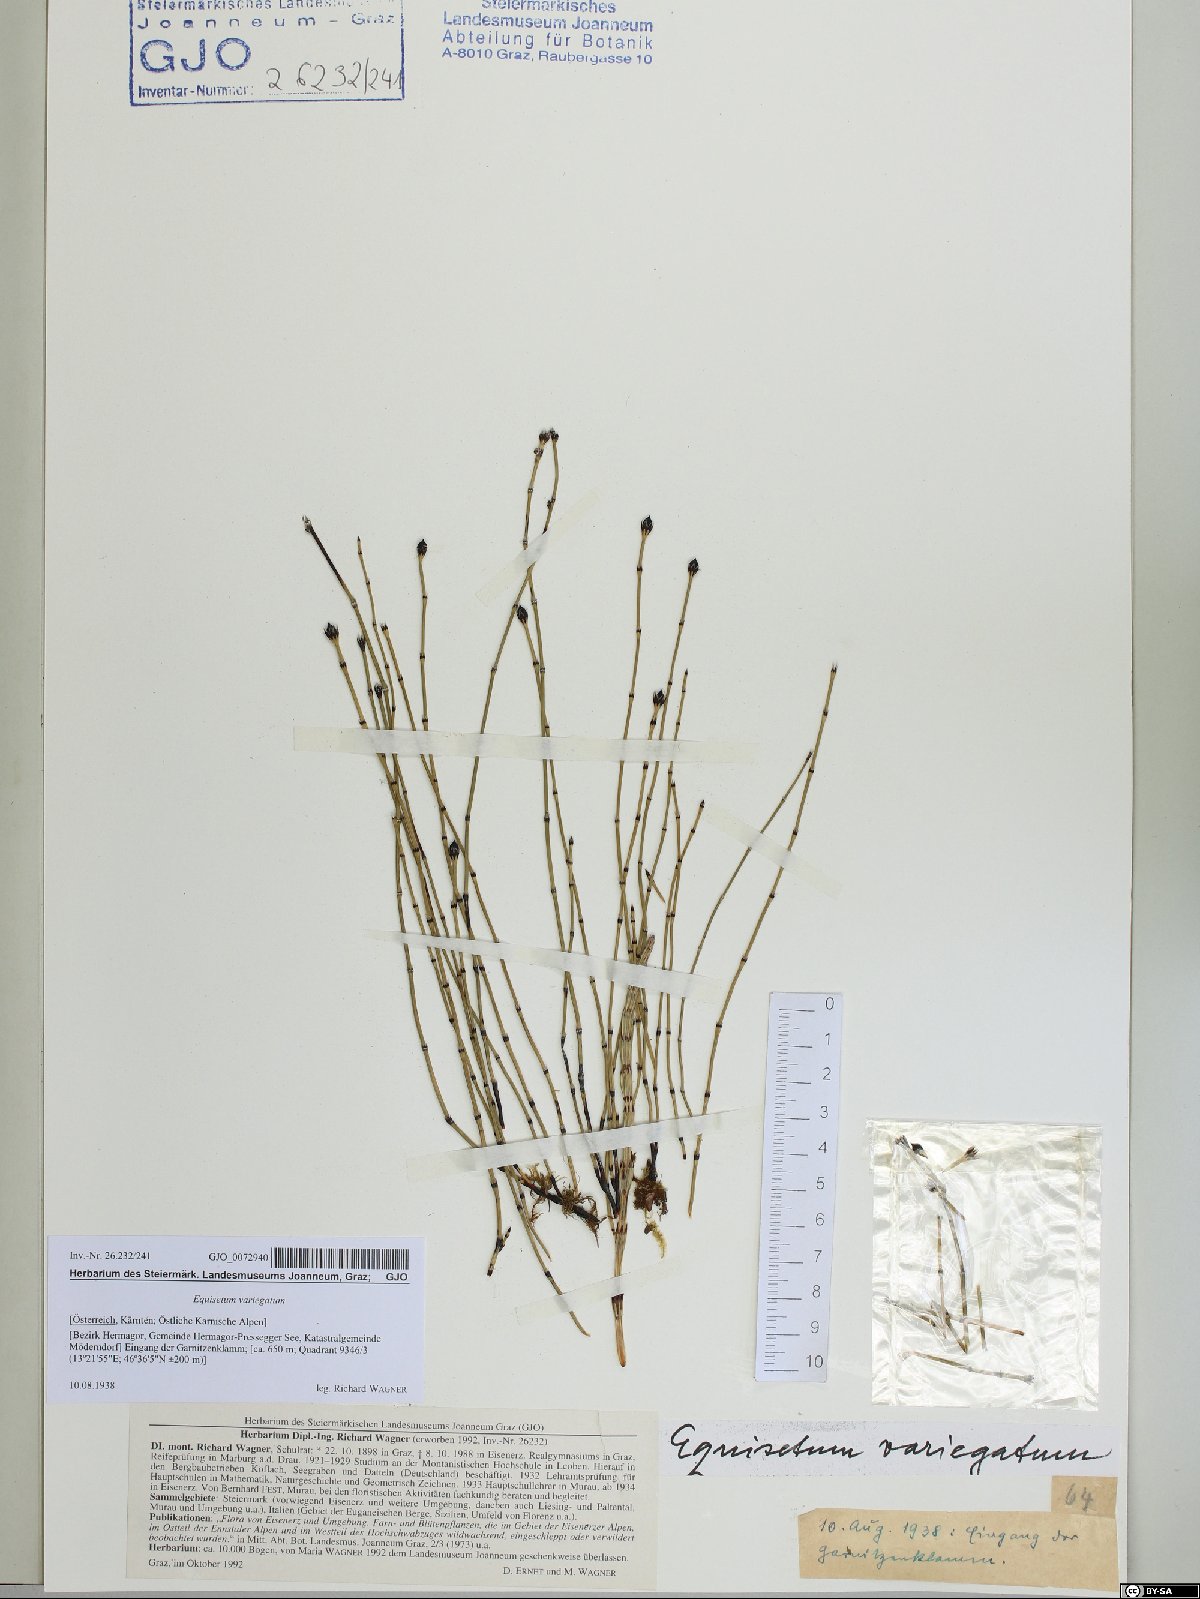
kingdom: Plantae
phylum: Tracheophyta
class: Polypodiopsida
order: Equisetales
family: Equisetaceae
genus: Equisetum
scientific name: Equisetum variegatum
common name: Variegated horsetail
